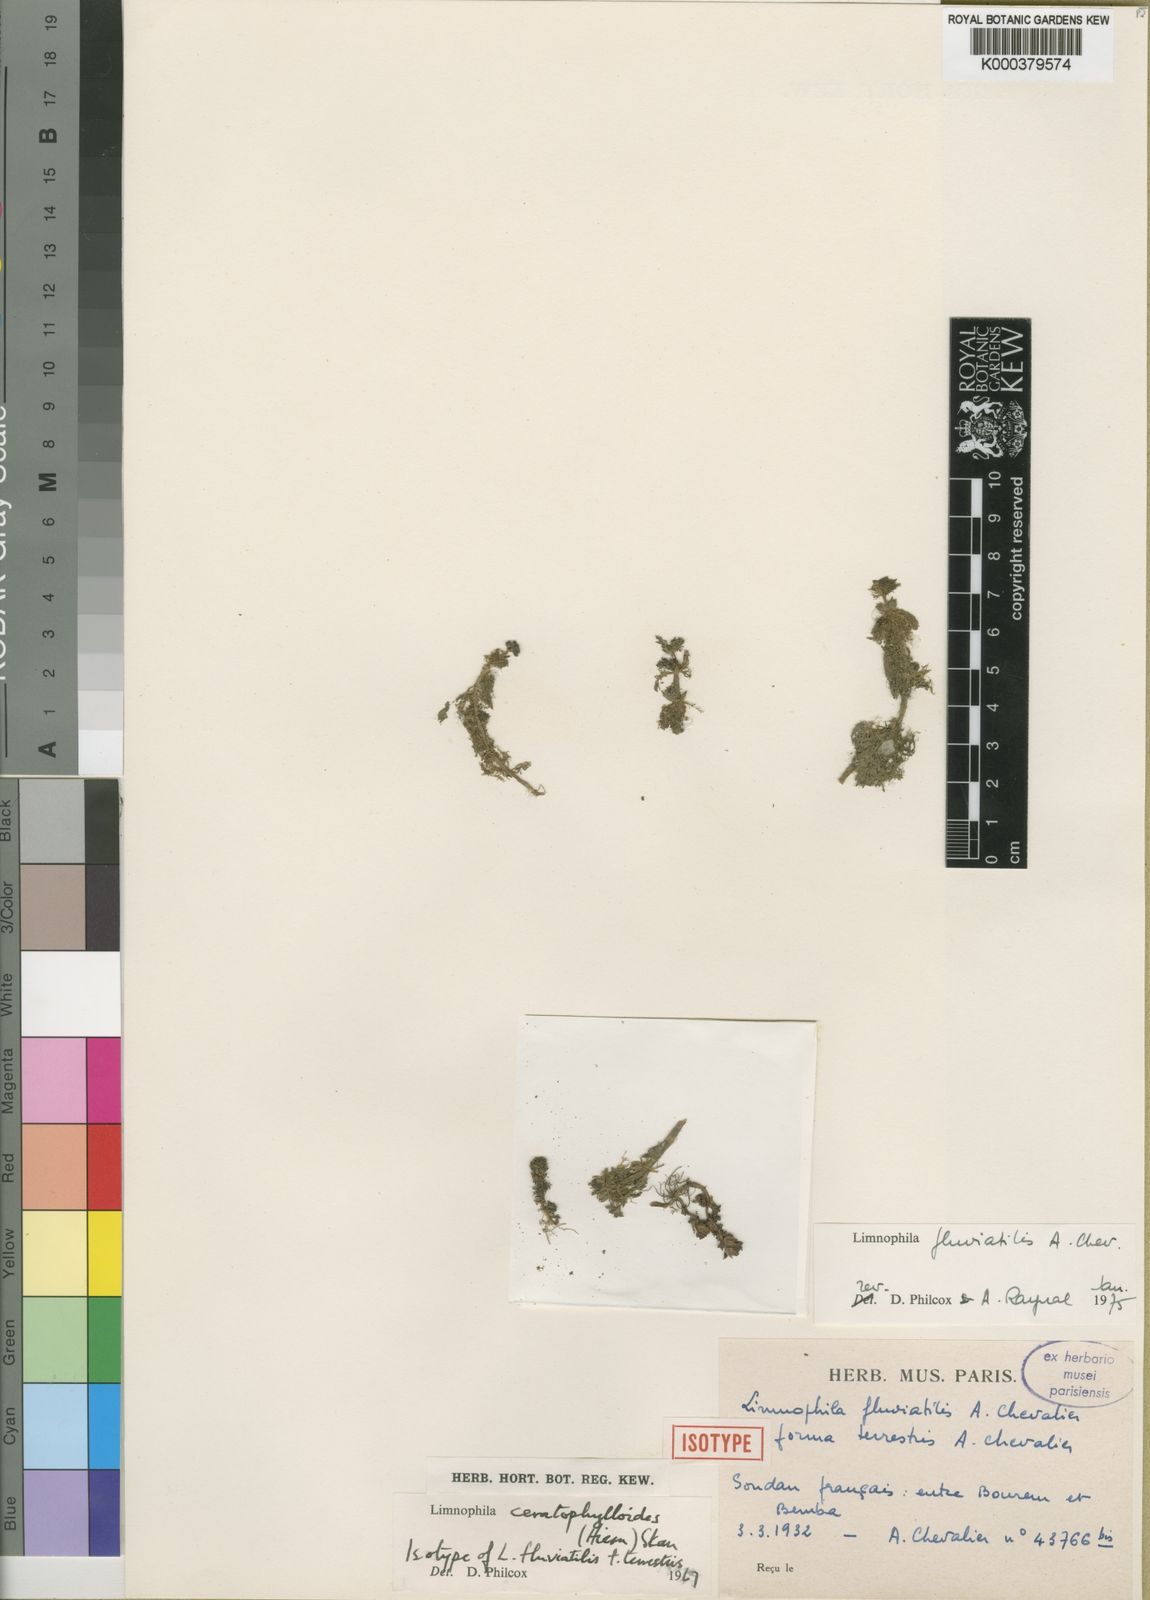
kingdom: Plantae
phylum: Tracheophyta
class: Magnoliopsida
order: Lamiales
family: Plantaginaceae
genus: Limnophila
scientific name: Limnophila fluviatilis
